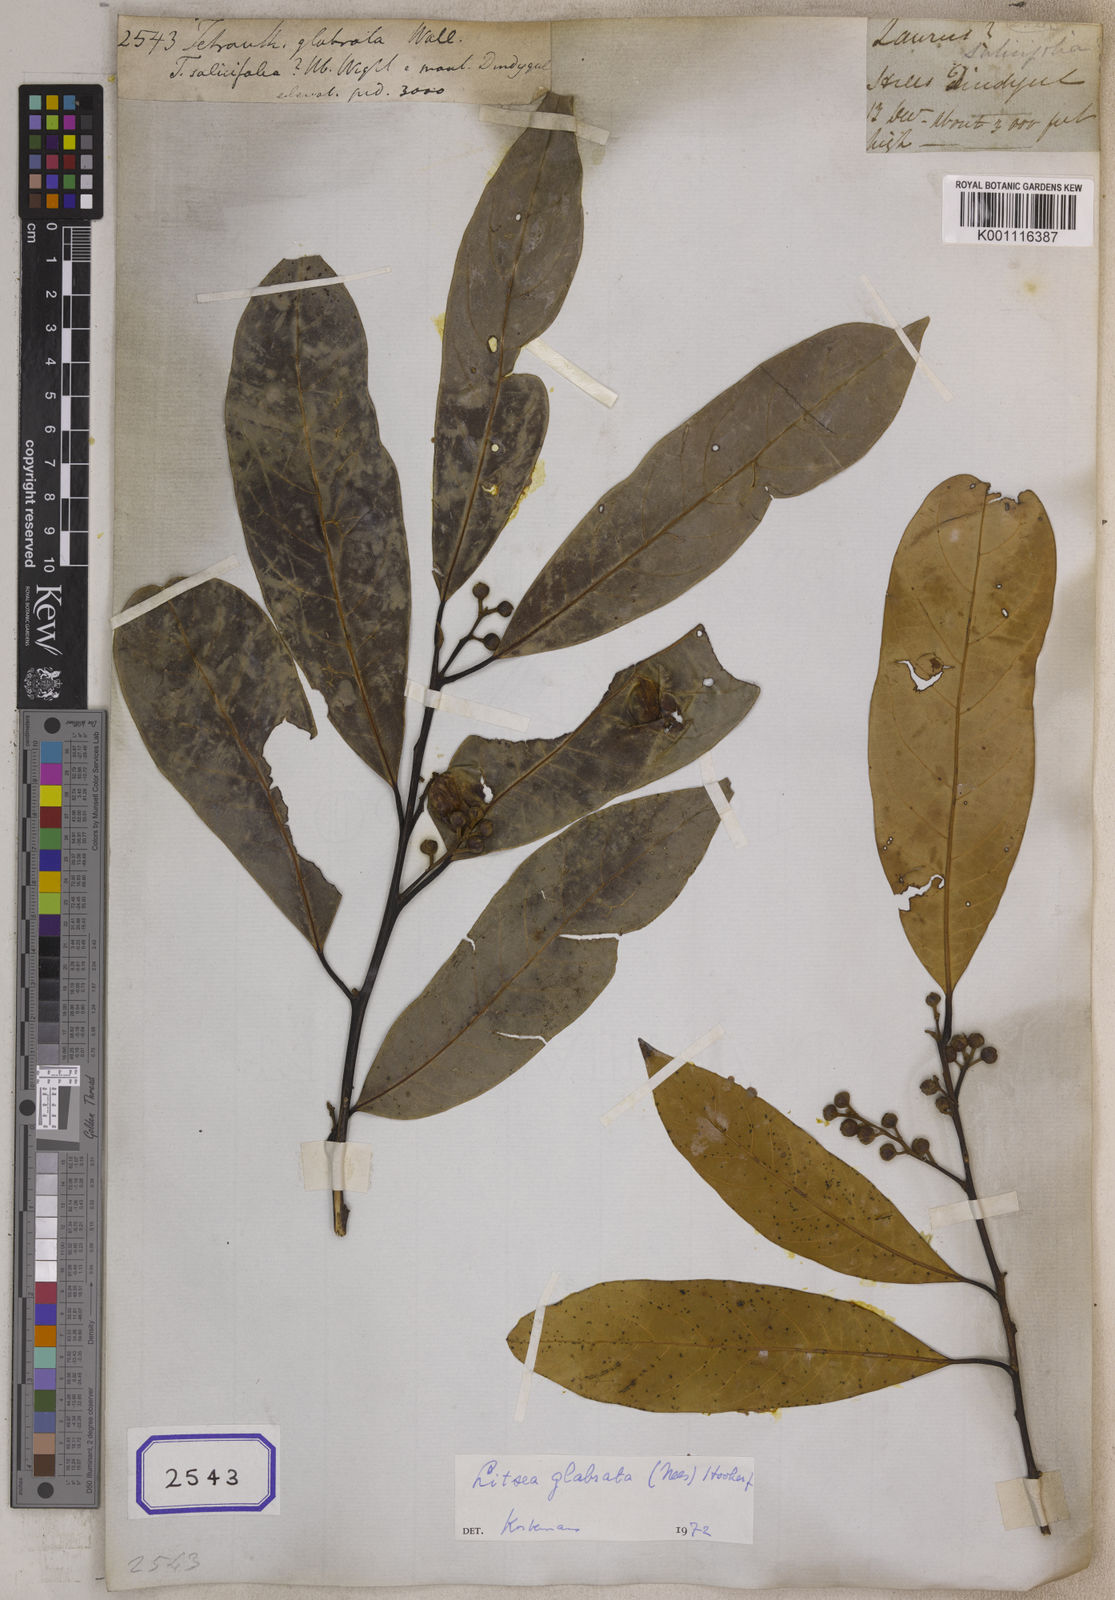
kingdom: Plantae
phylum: Tracheophyta
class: Magnoliopsida
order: Laurales
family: Lauraceae
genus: Litsea
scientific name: Litsea
